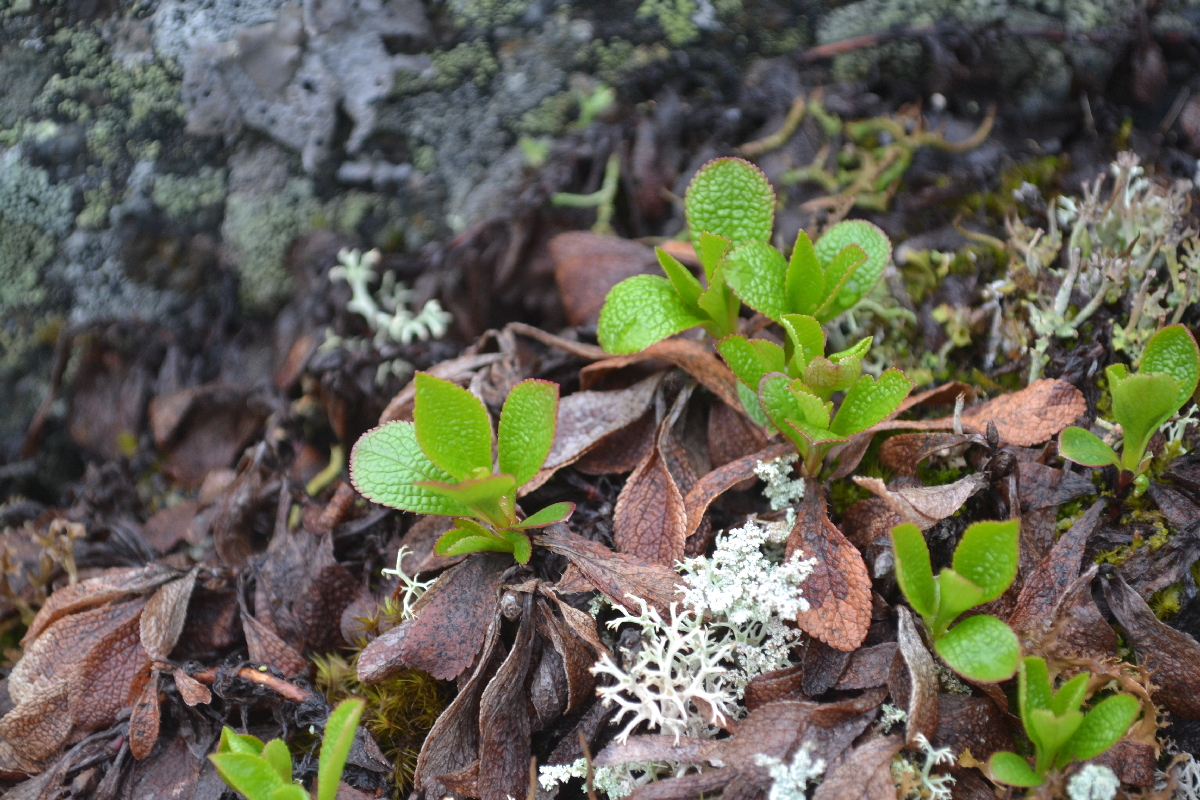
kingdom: Plantae
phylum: Tracheophyta
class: Magnoliopsida
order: Ericales
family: Ericaceae
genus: Arctostaphylos
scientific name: Arctostaphylos alpinus
